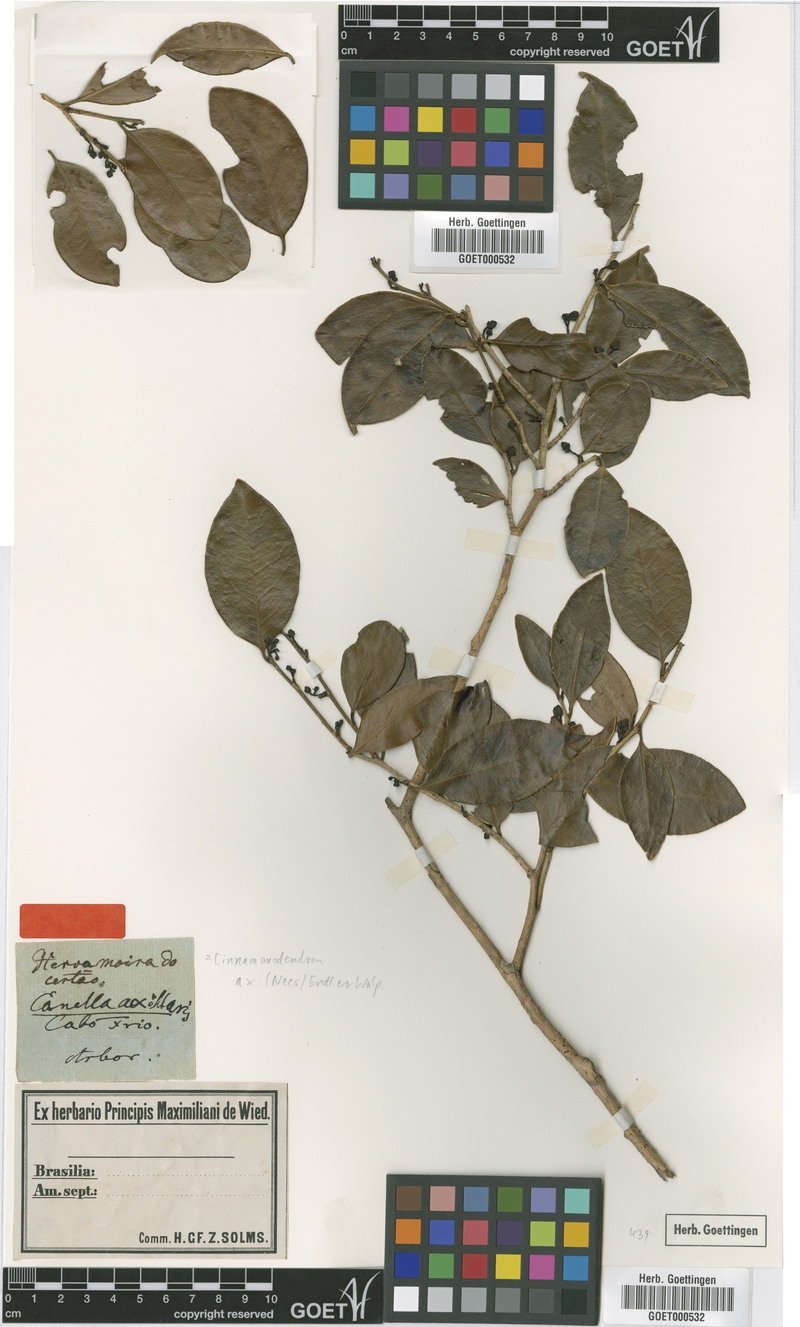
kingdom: Plantae
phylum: Tracheophyta
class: Magnoliopsida
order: Canellales
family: Canellaceae
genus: Cinnamodendron
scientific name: Cinnamodendron axillare
